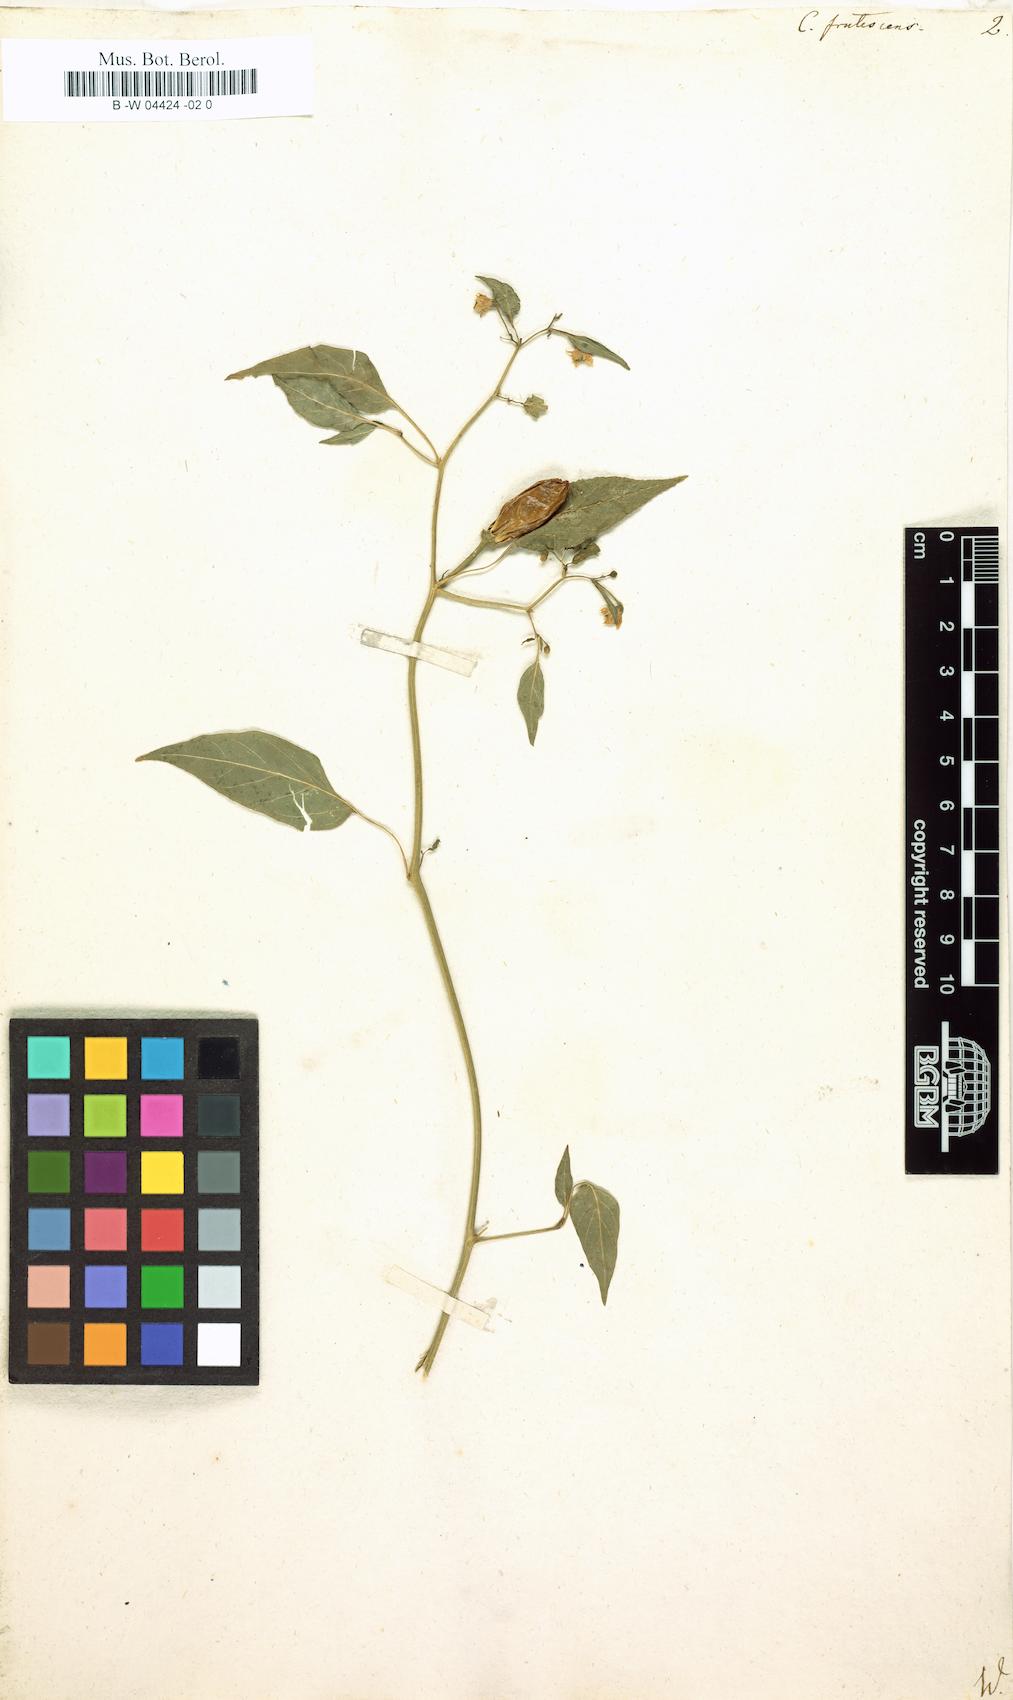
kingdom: Plantae
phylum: Tracheophyta
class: Magnoliopsida
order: Solanales
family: Solanaceae
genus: Capsicum
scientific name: Capsicum frutescens
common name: Bird pepper
